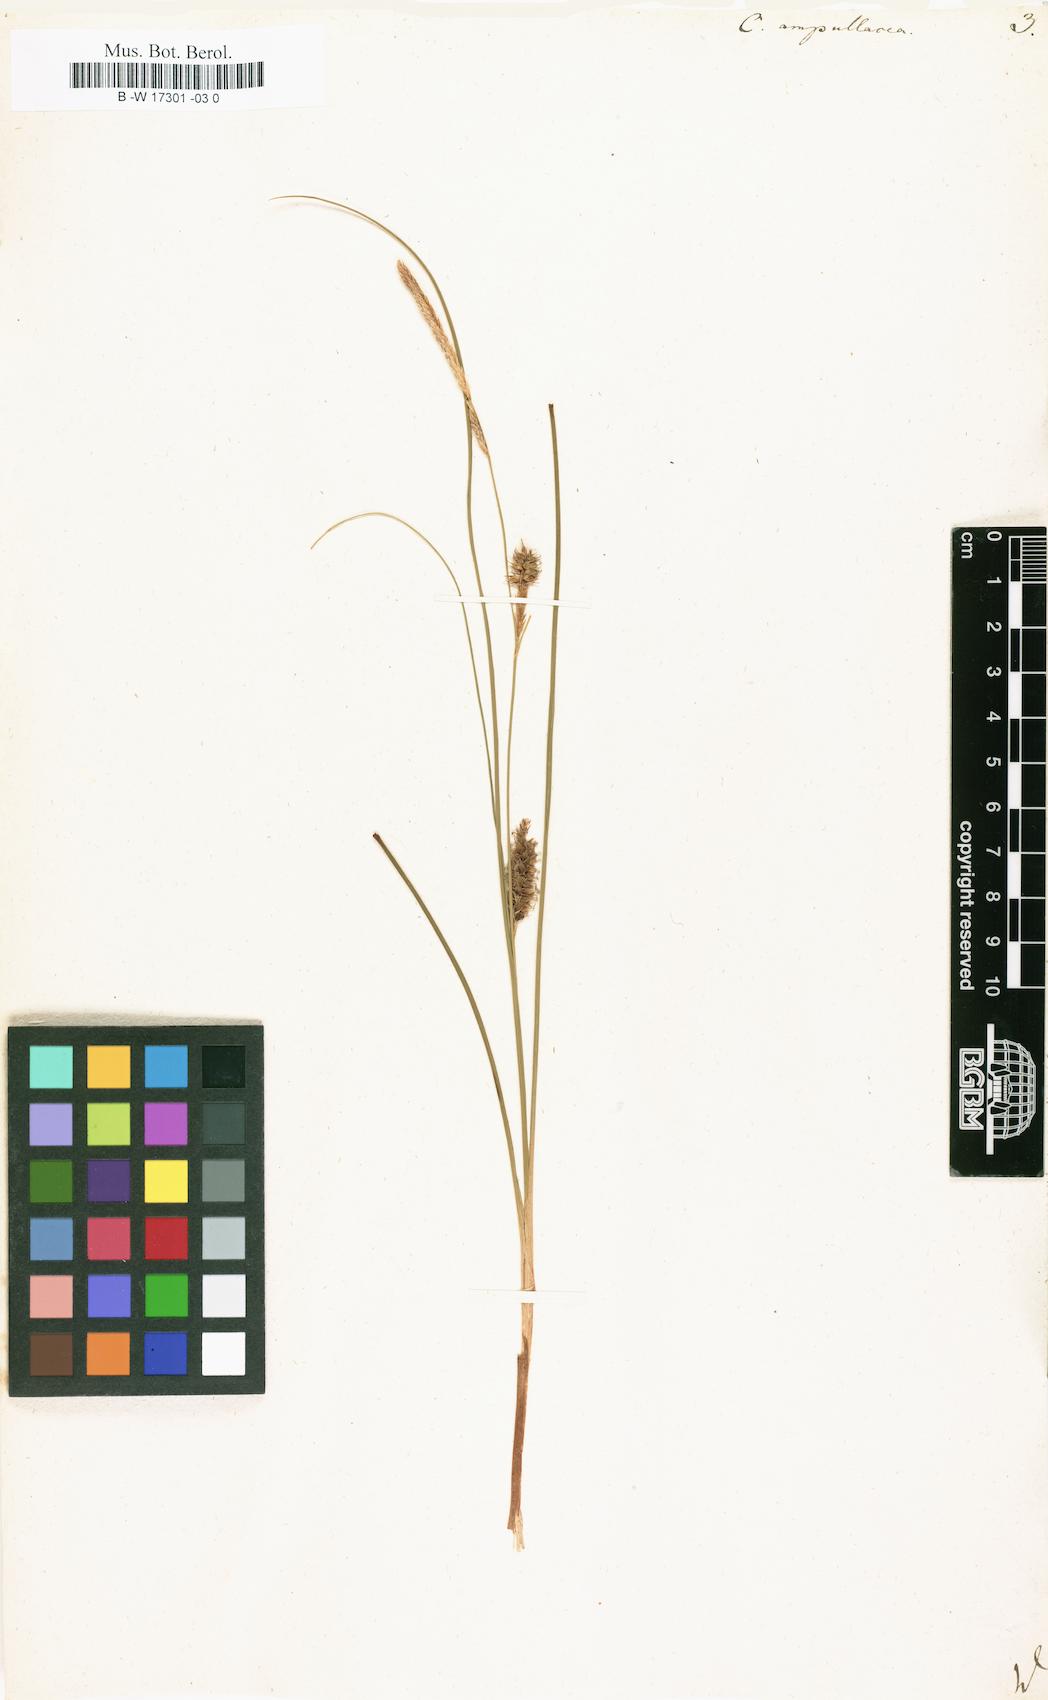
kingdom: Plantae
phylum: Tracheophyta
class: Liliopsida
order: Poales
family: Cyperaceae
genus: Carex
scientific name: Carex rostrata
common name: Bottle sedge
